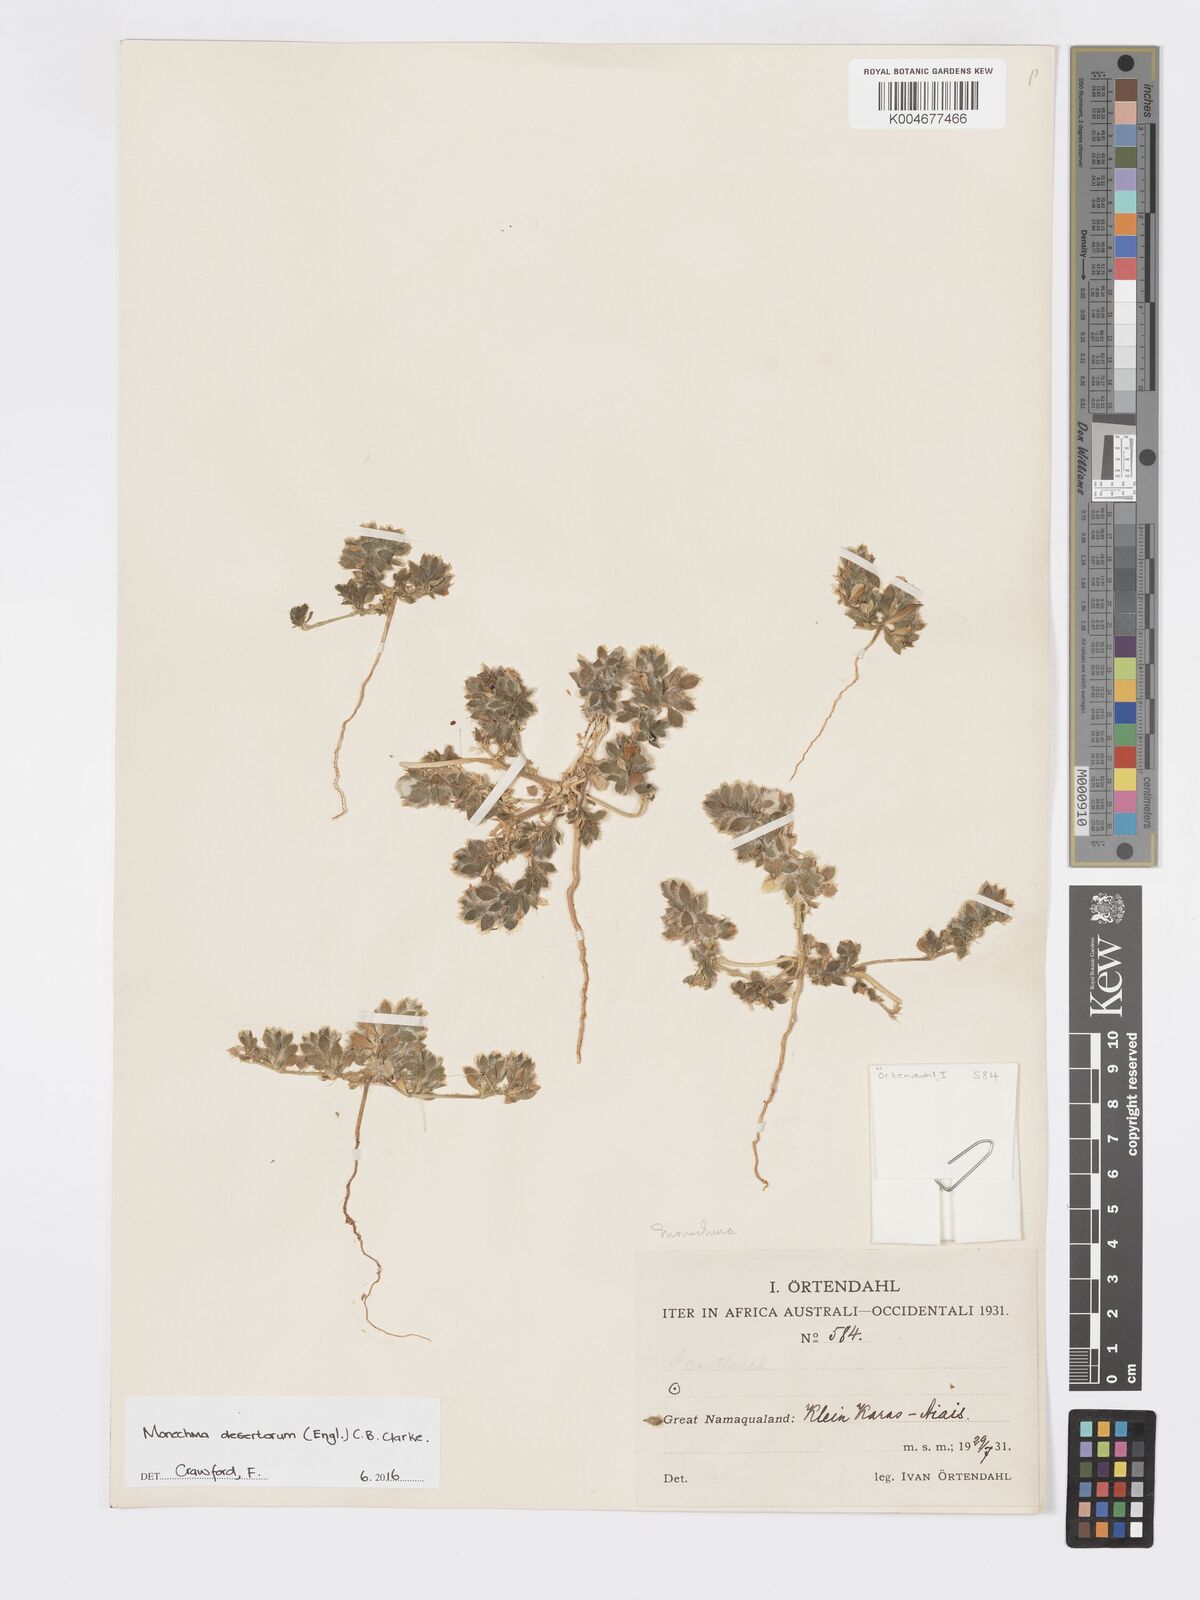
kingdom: Plantae
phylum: Tracheophyta
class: Magnoliopsida
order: Lamiales
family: Acanthaceae
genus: Pogonospermum
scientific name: Pogonospermum
